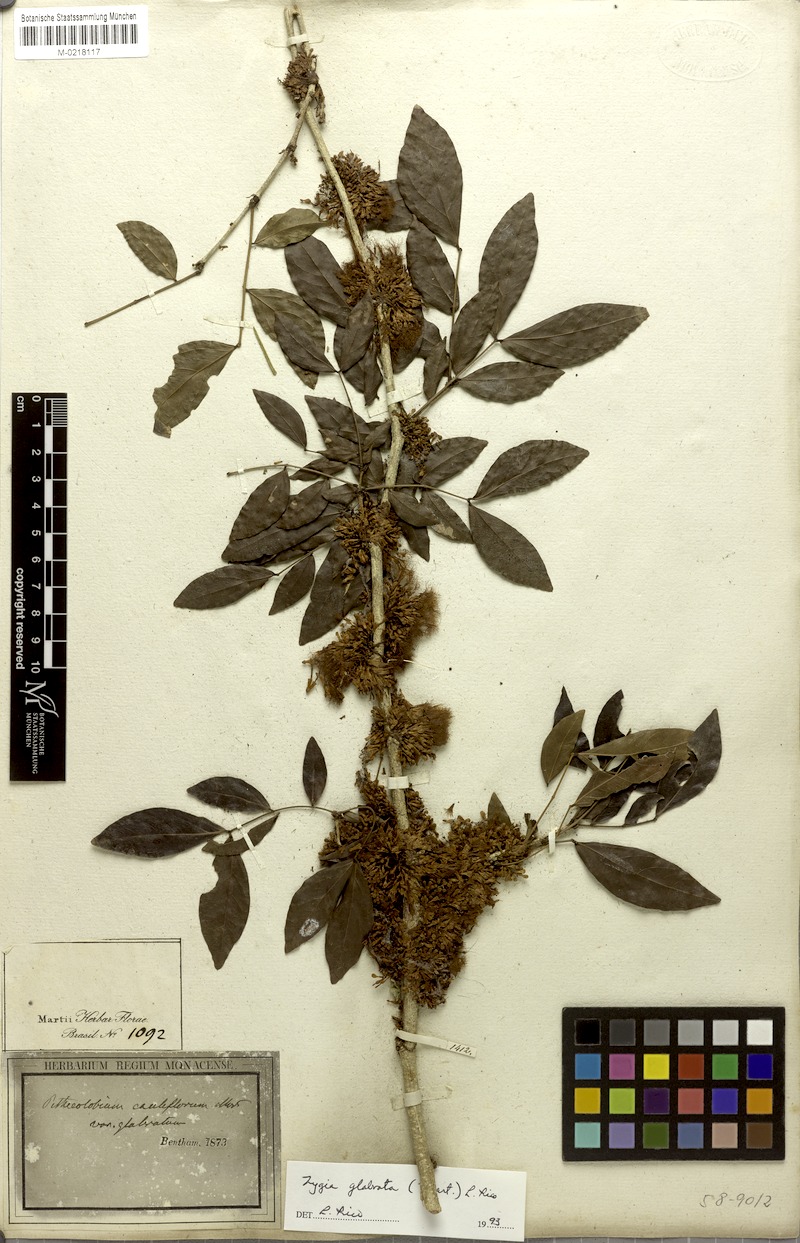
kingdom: Plantae
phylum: Tracheophyta
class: Magnoliopsida
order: Fabales
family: Fabaceae
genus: Zygia
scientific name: Zygia latifolia
